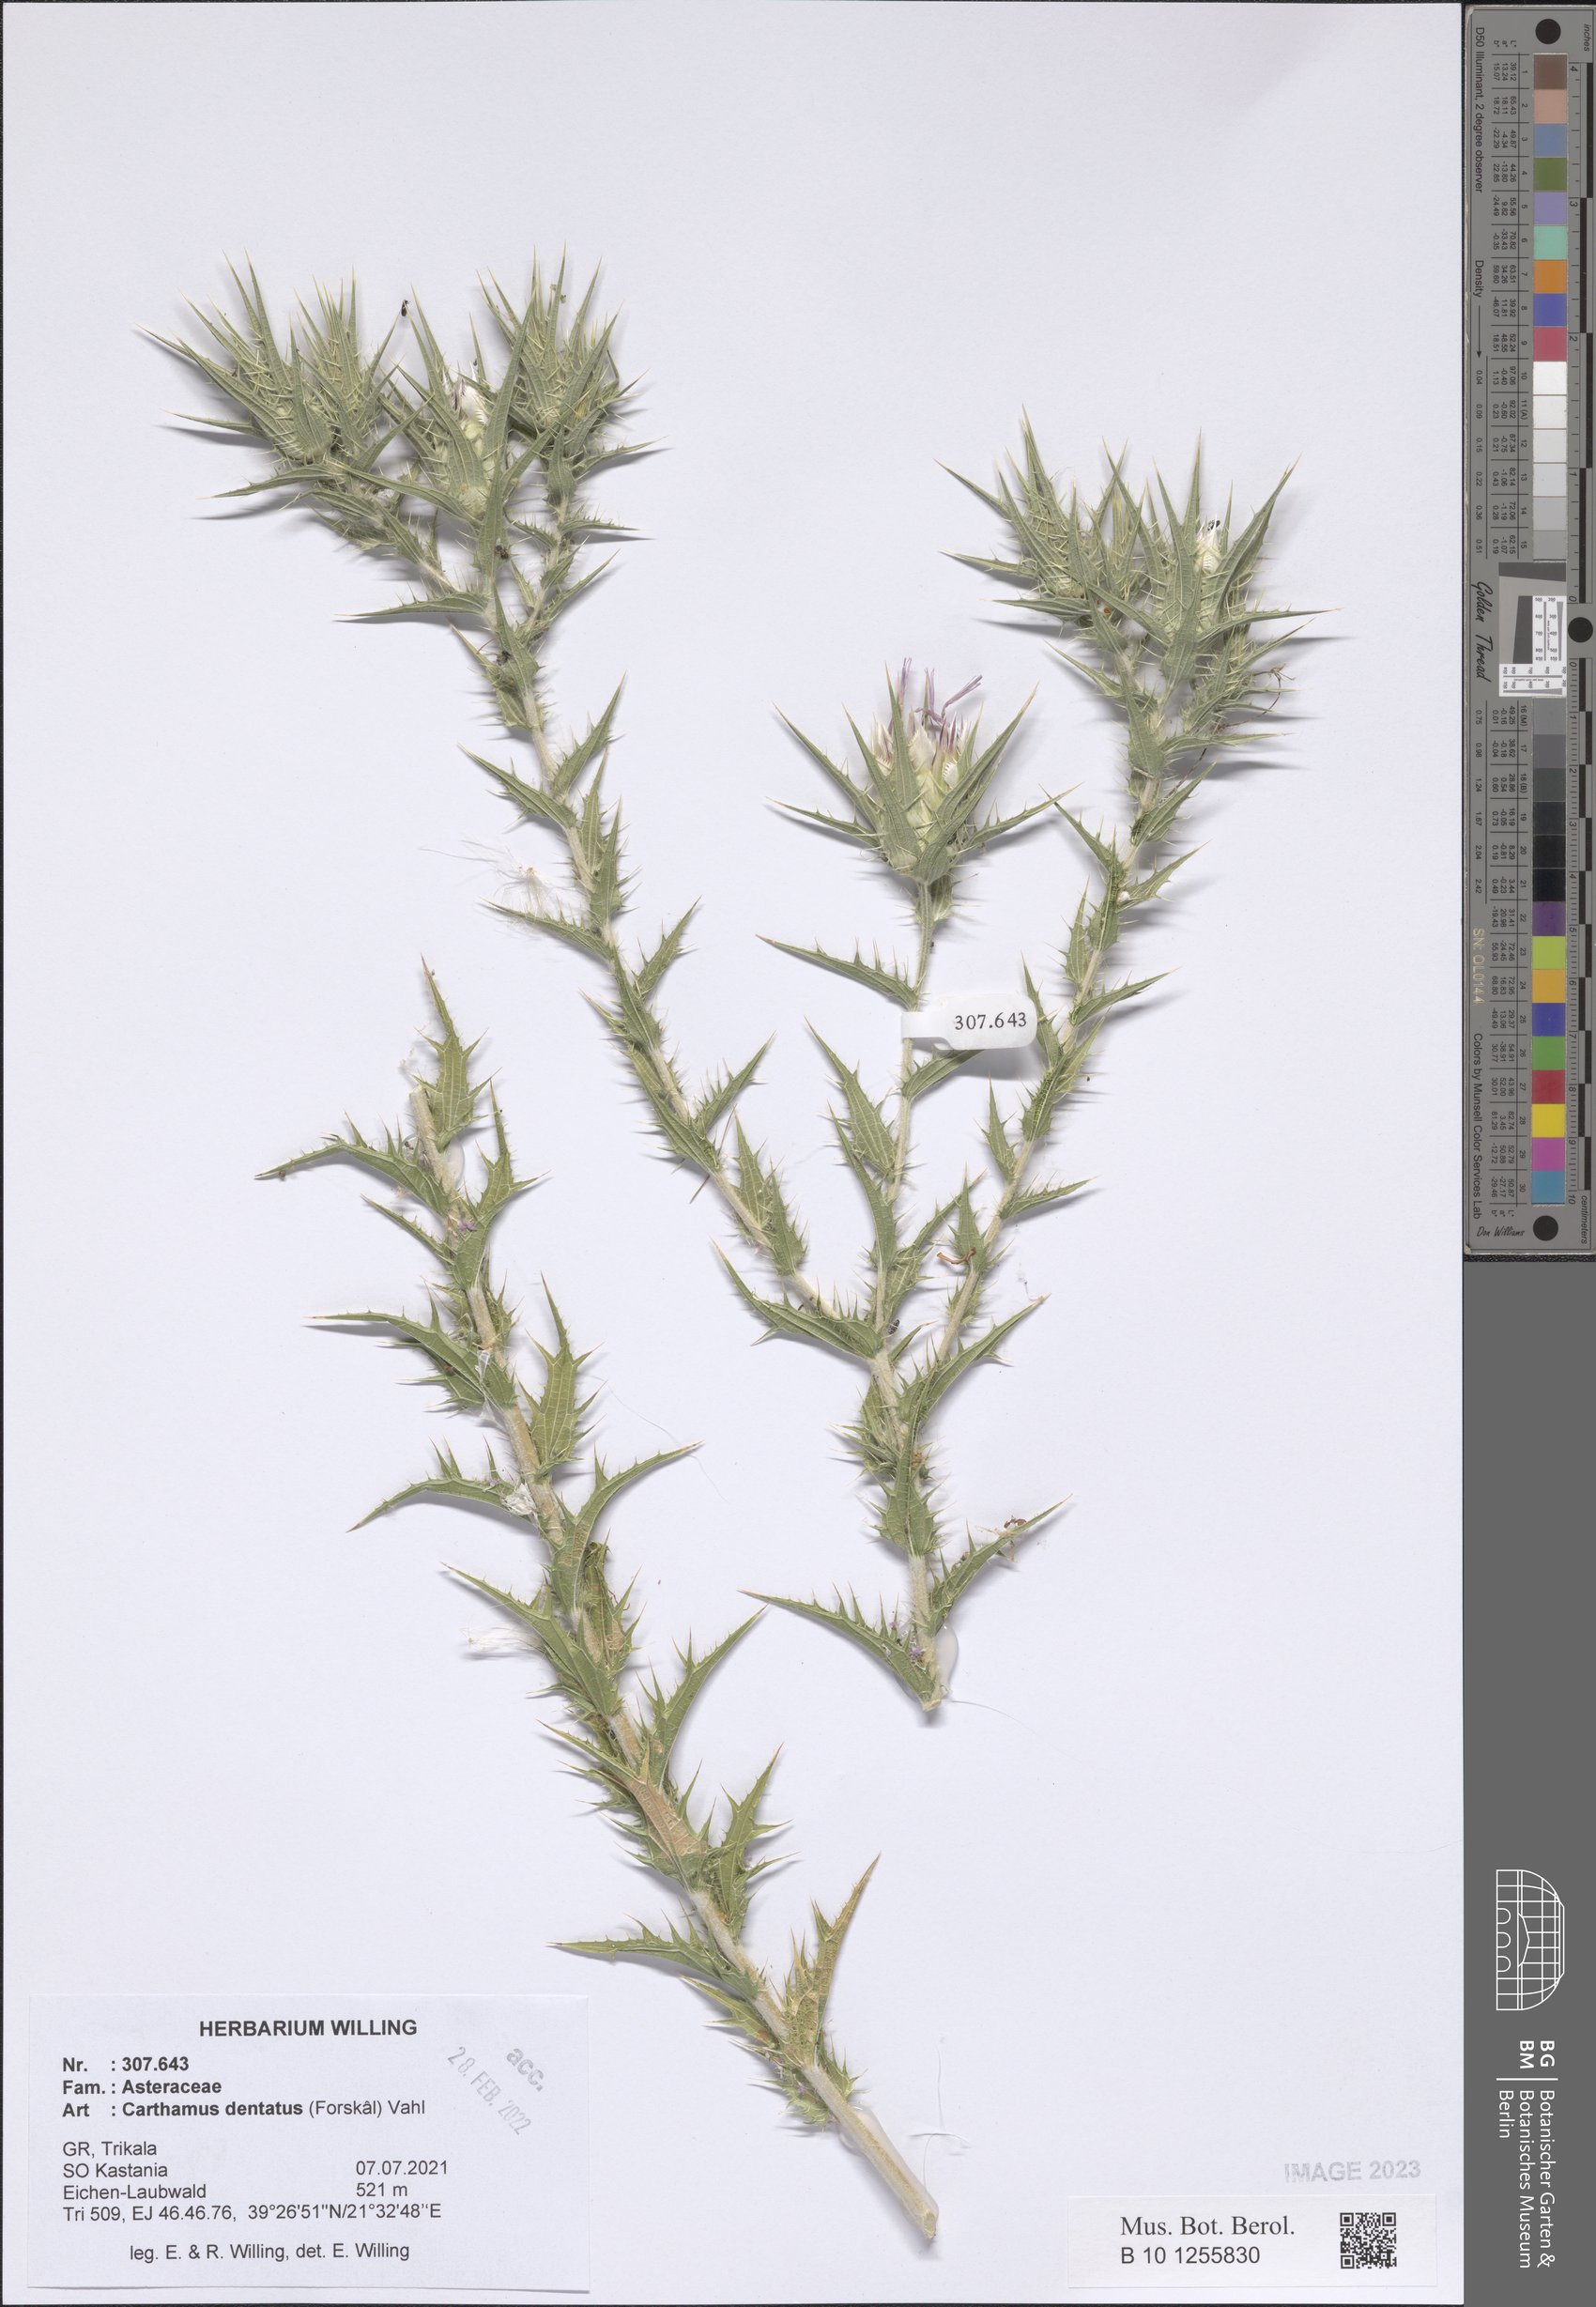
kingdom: Plantae
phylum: Tracheophyta
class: Magnoliopsida
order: Asterales
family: Asteraceae
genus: Carthamus
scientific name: Carthamus dentatus
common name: Toothed thistle
